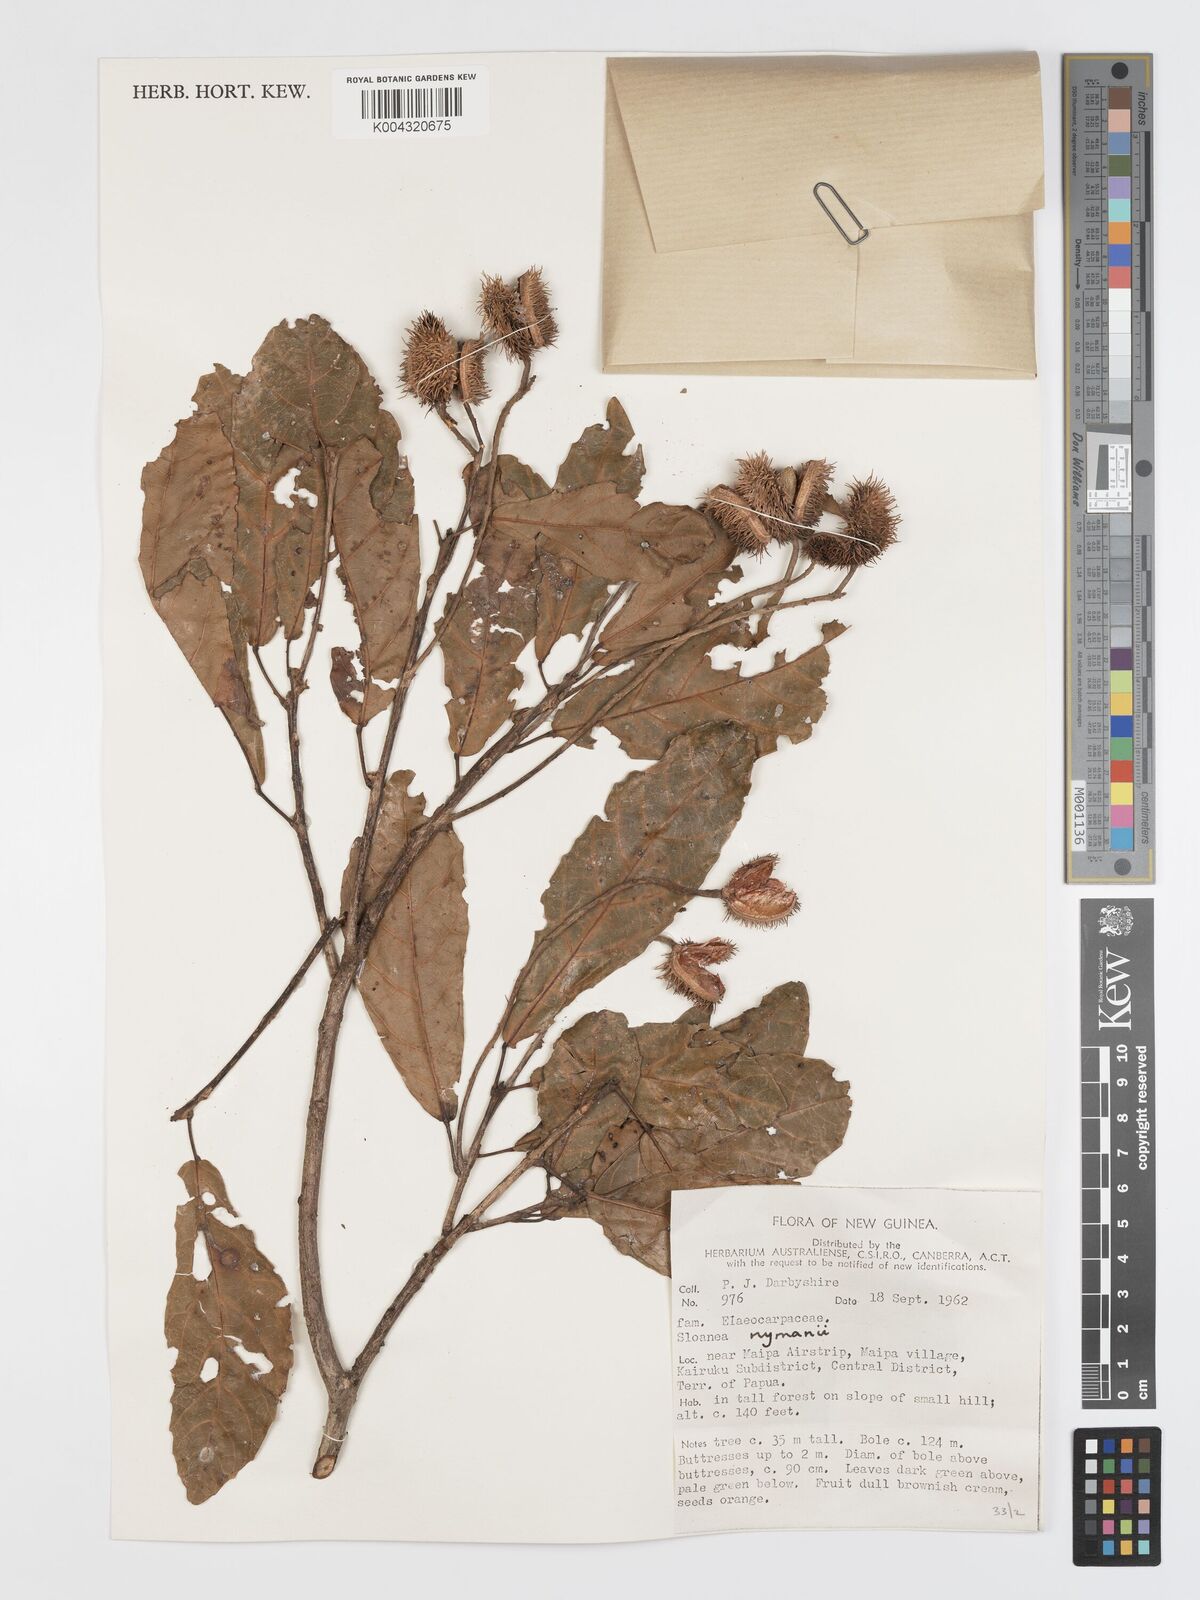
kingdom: Plantae
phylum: Tracheophyta
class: Magnoliopsida
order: Oxalidales
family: Elaeocarpaceae
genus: Sloanea
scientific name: Sloanea nymanii
